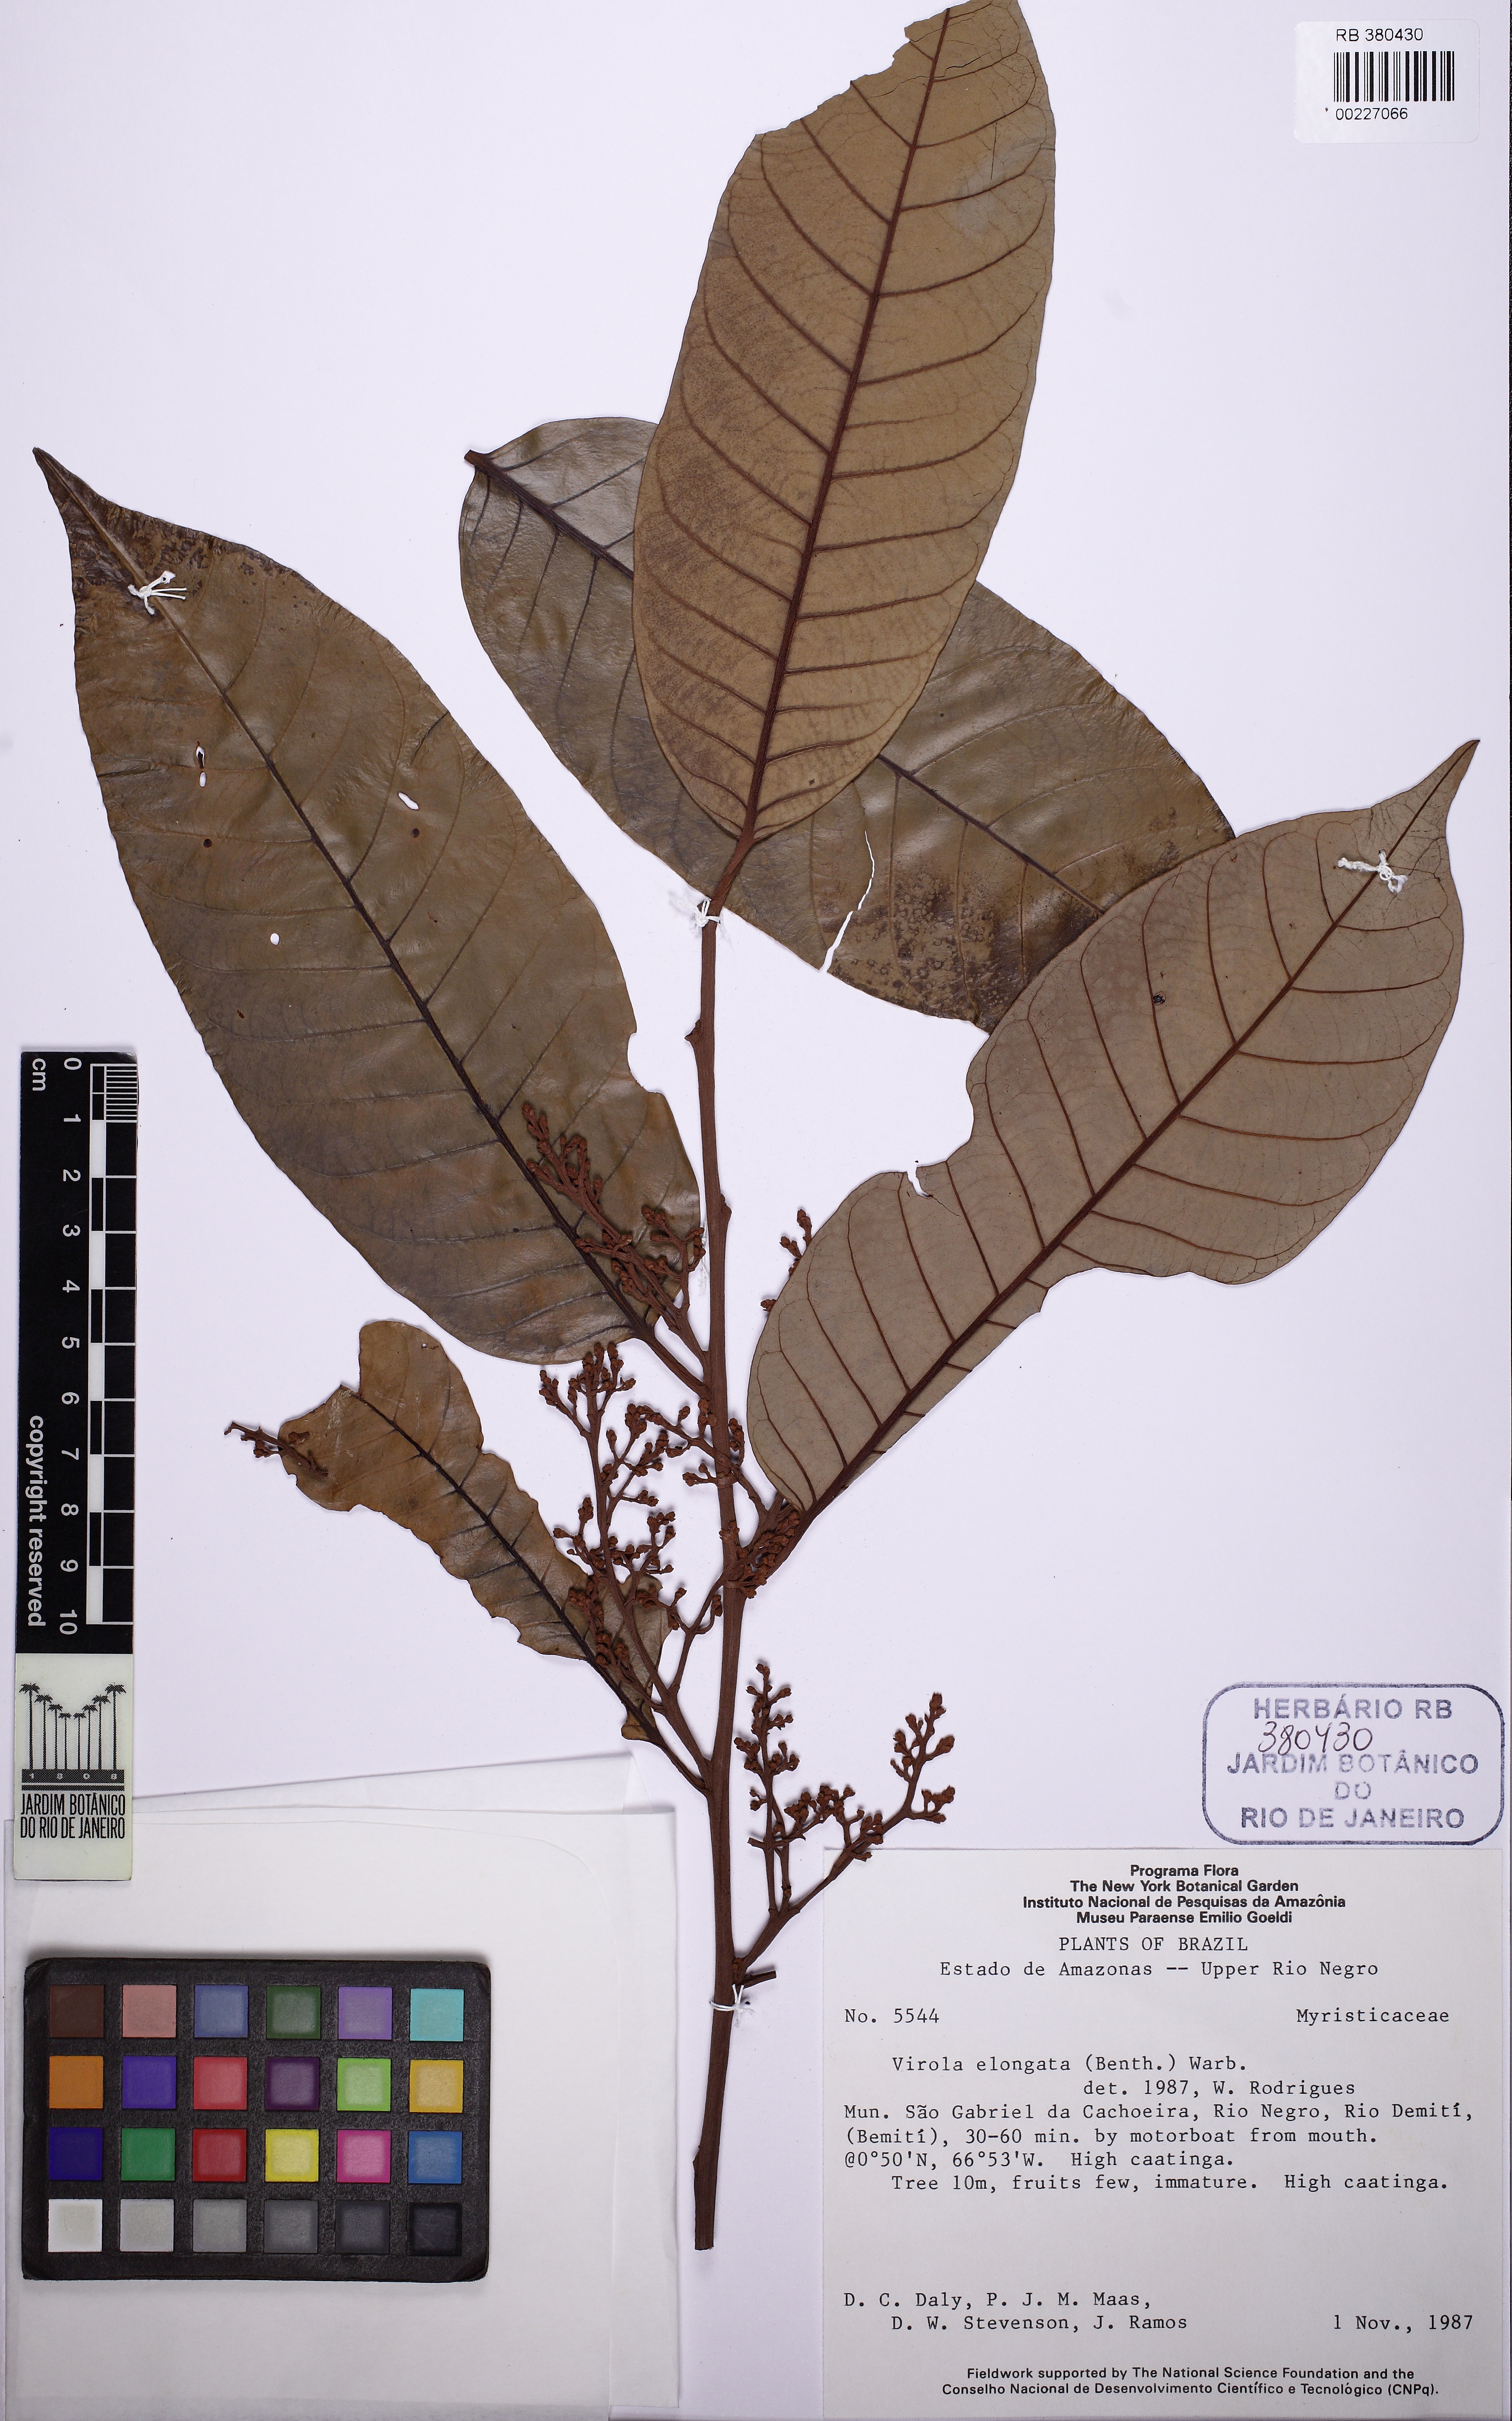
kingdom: Plantae
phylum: Tracheophyta
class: Magnoliopsida
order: Magnoliales
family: Myristicaceae
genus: Virola
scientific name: Virola elongata
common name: Sacred virola
